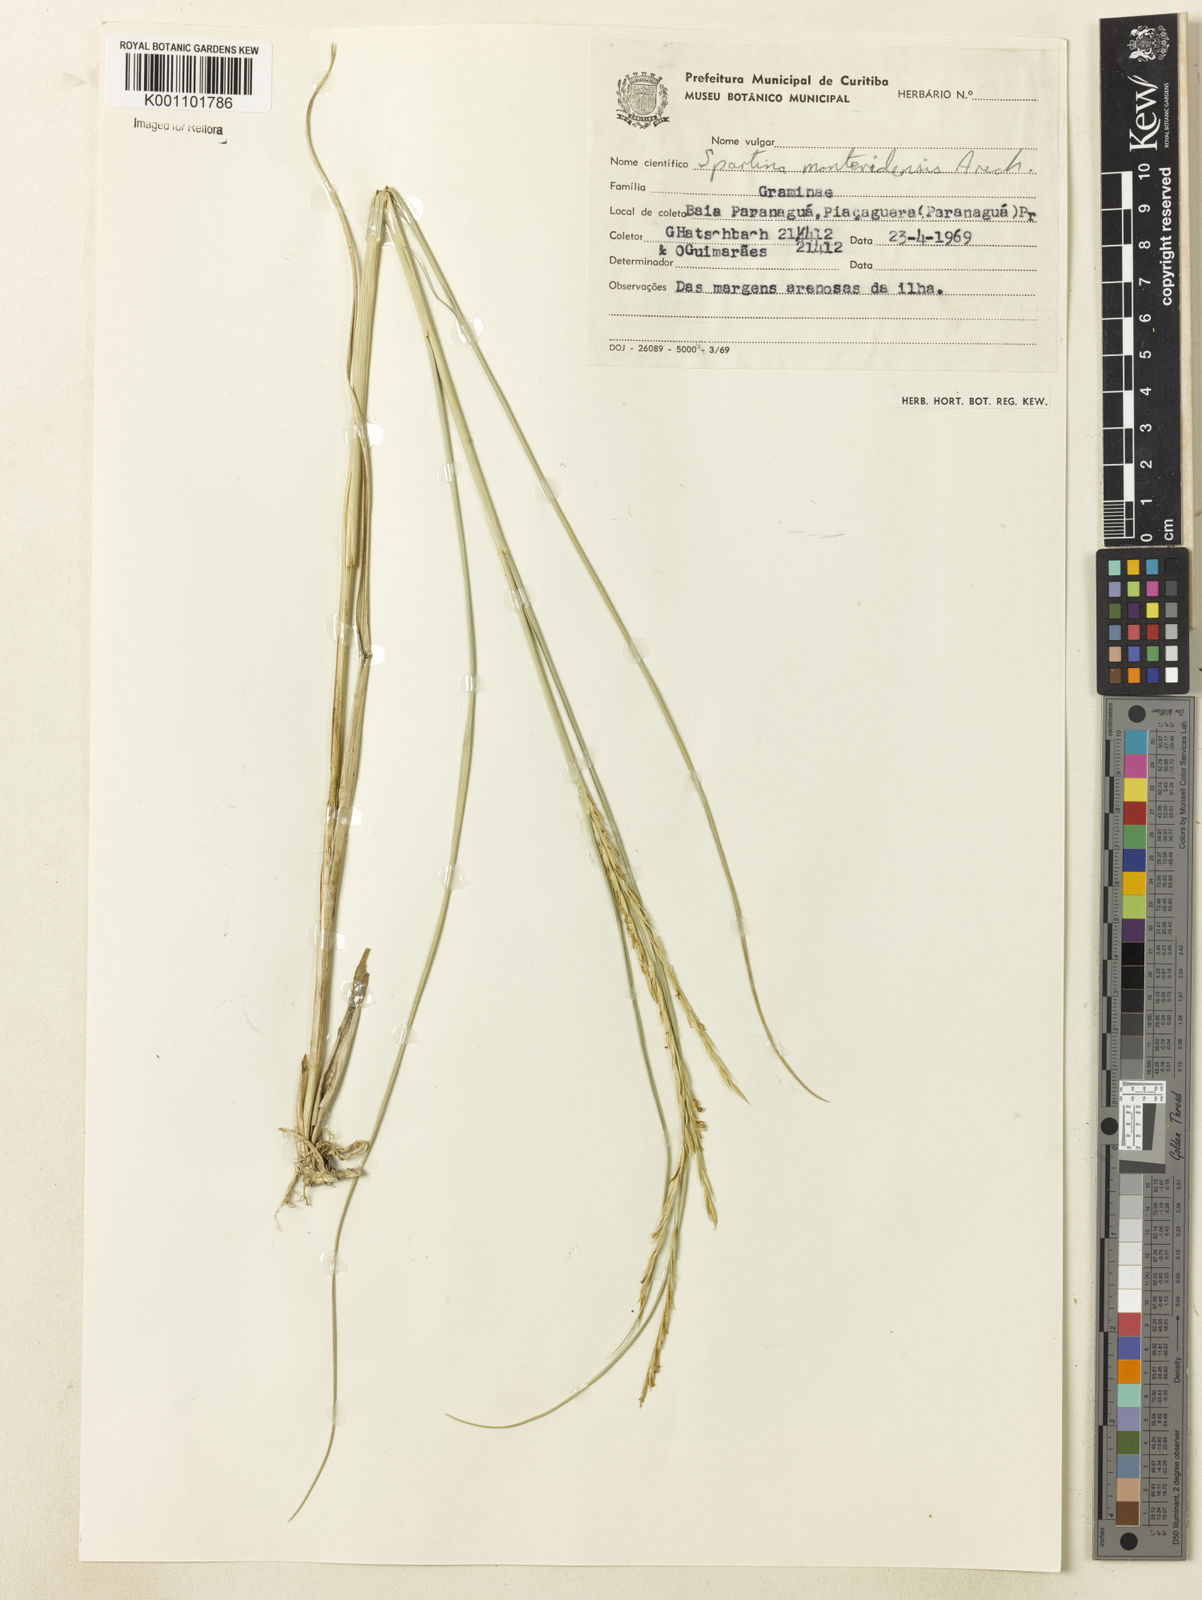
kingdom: Plantae
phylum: Tracheophyta
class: Liliopsida
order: Poales
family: Poaceae
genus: Sporobolus
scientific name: Sporobolus montevidensis
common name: Montevideo dropseed
